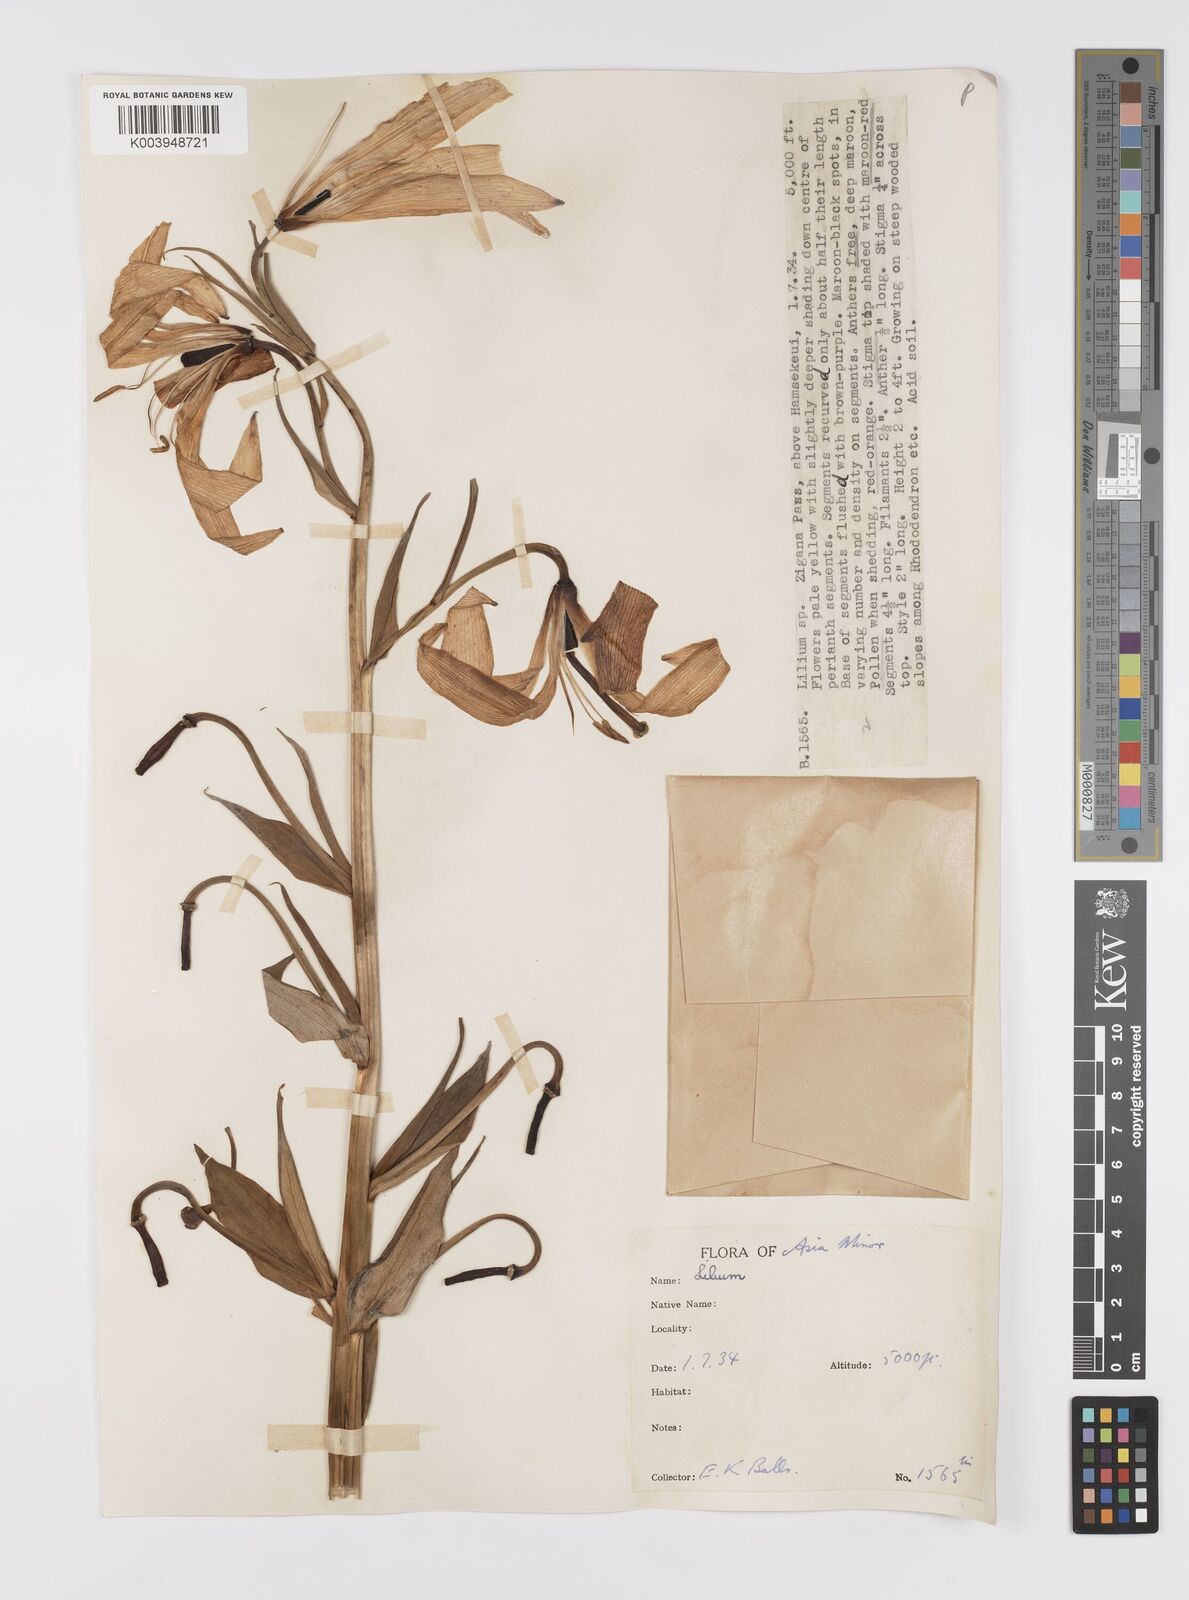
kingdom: Plantae
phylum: Tracheophyta
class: Liliopsida
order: Liliales
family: Liliaceae
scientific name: Liliaceae
